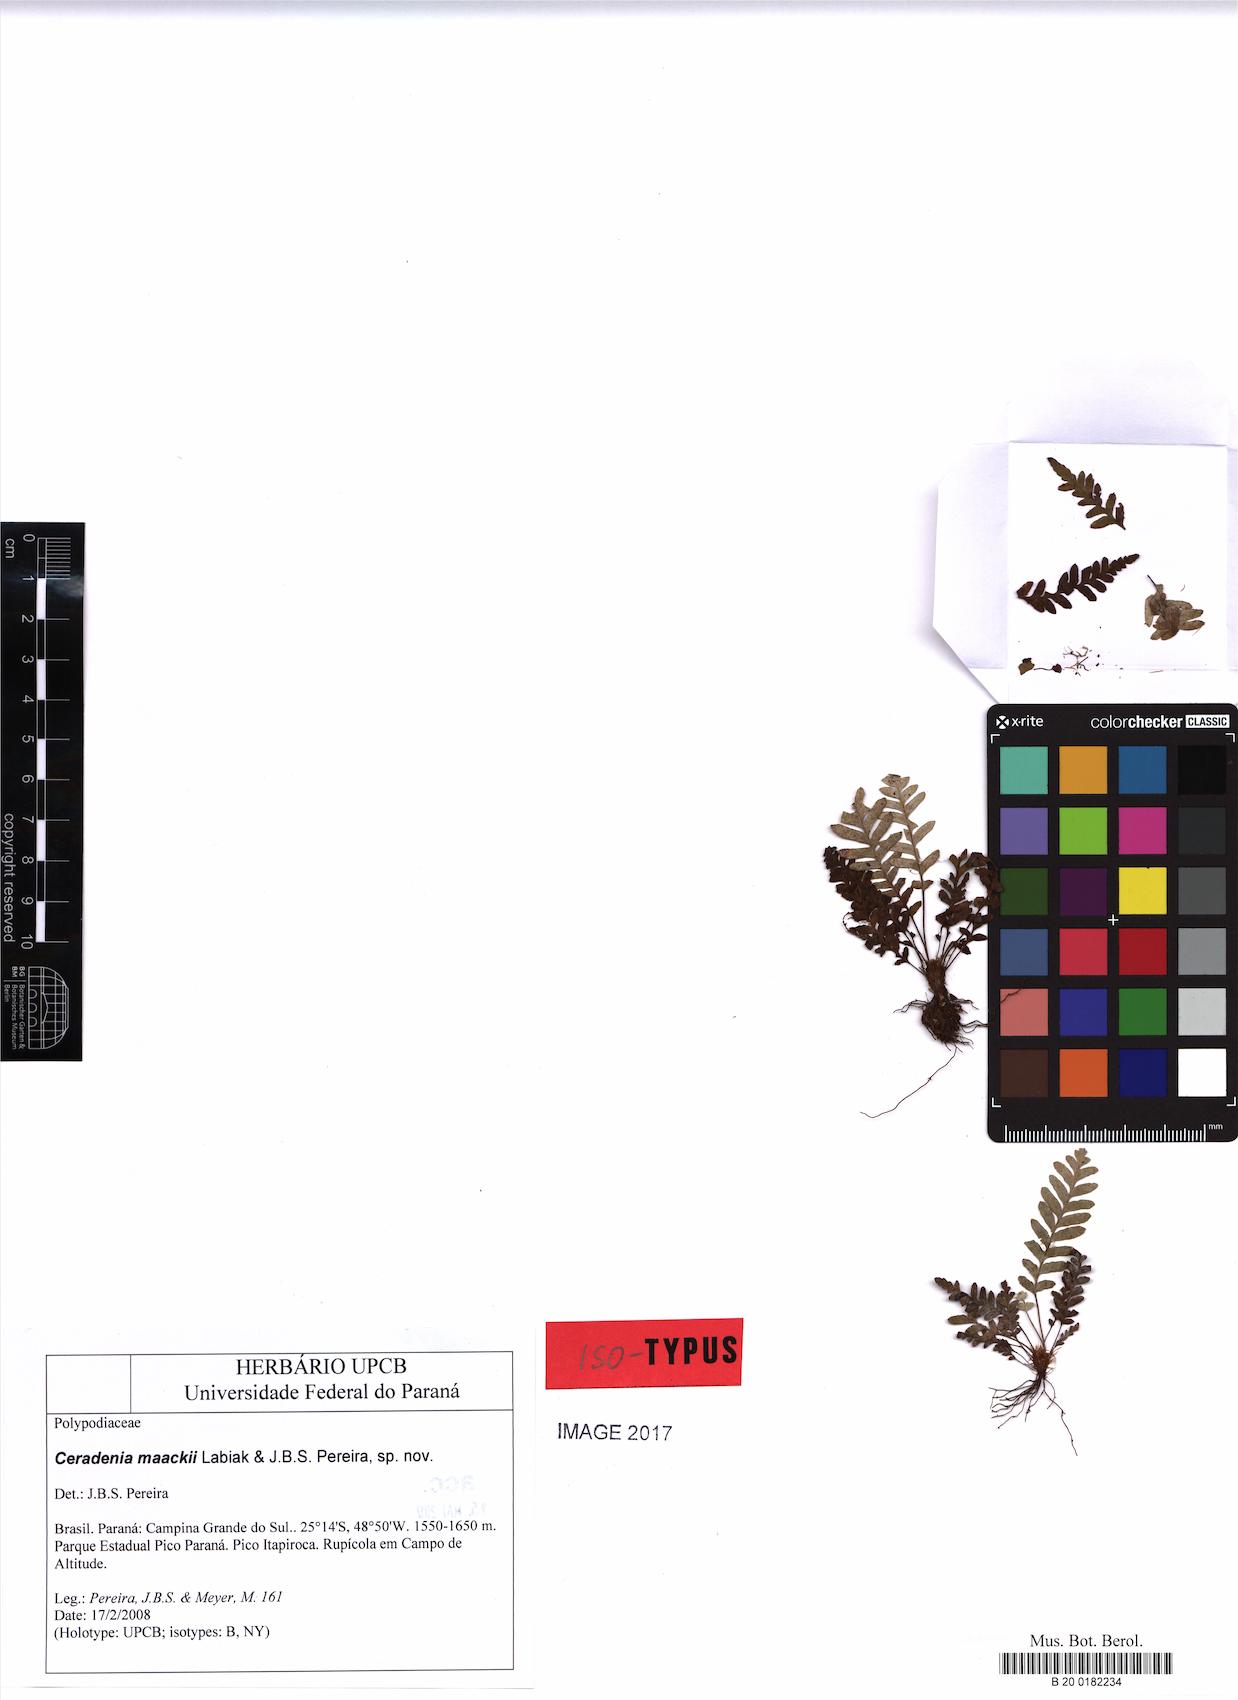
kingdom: Plantae
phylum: Tracheophyta
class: Polypodiopsida
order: Polypodiales
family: Polypodiaceae
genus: Ceradenia
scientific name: Ceradenia maackii
